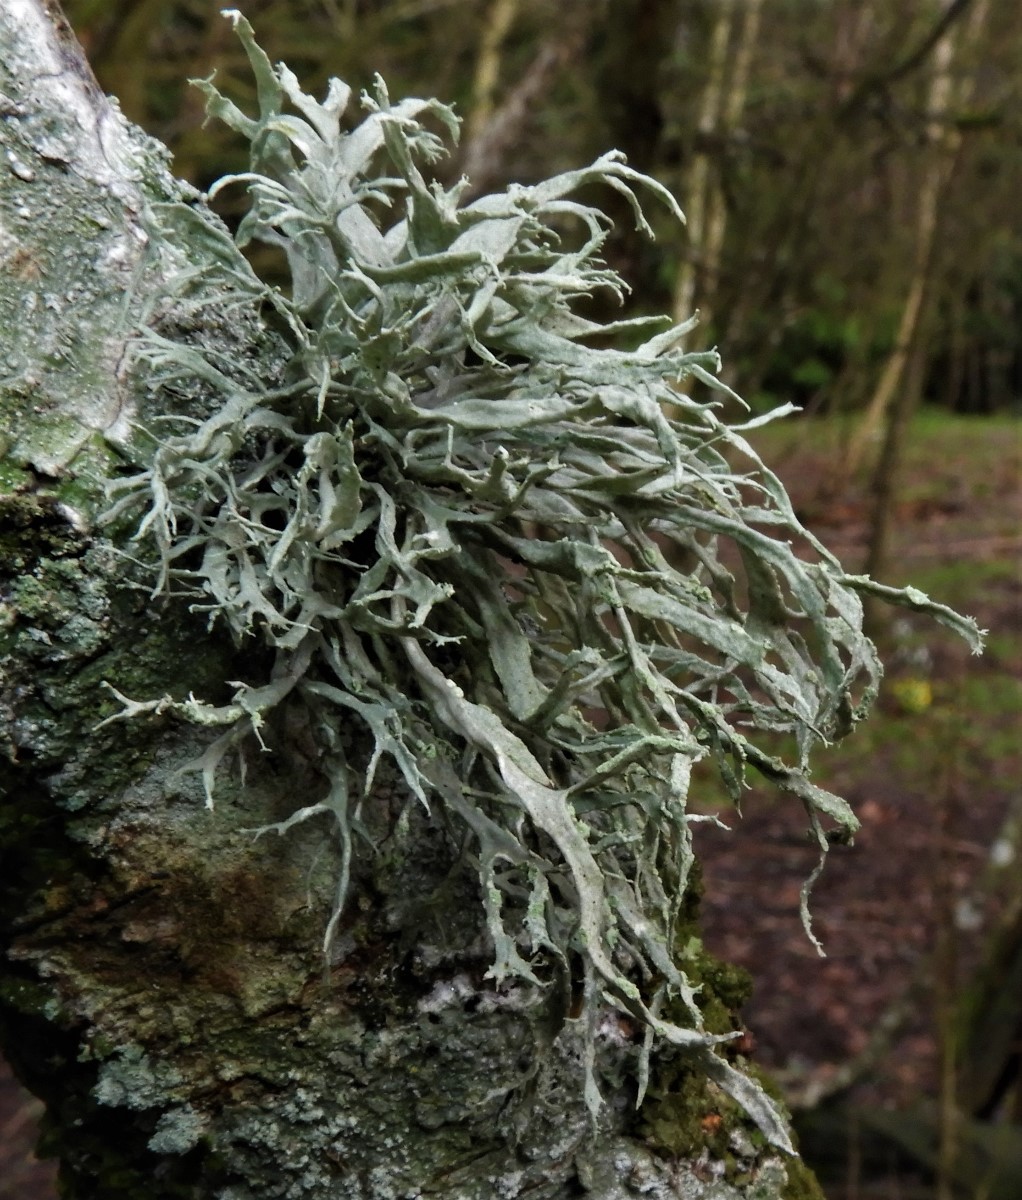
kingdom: Fungi
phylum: Ascomycota
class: Lecanoromycetes
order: Lecanorales
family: Ramalinaceae
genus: Ramalina
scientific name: Ramalina farinacea
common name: melet grenlav
